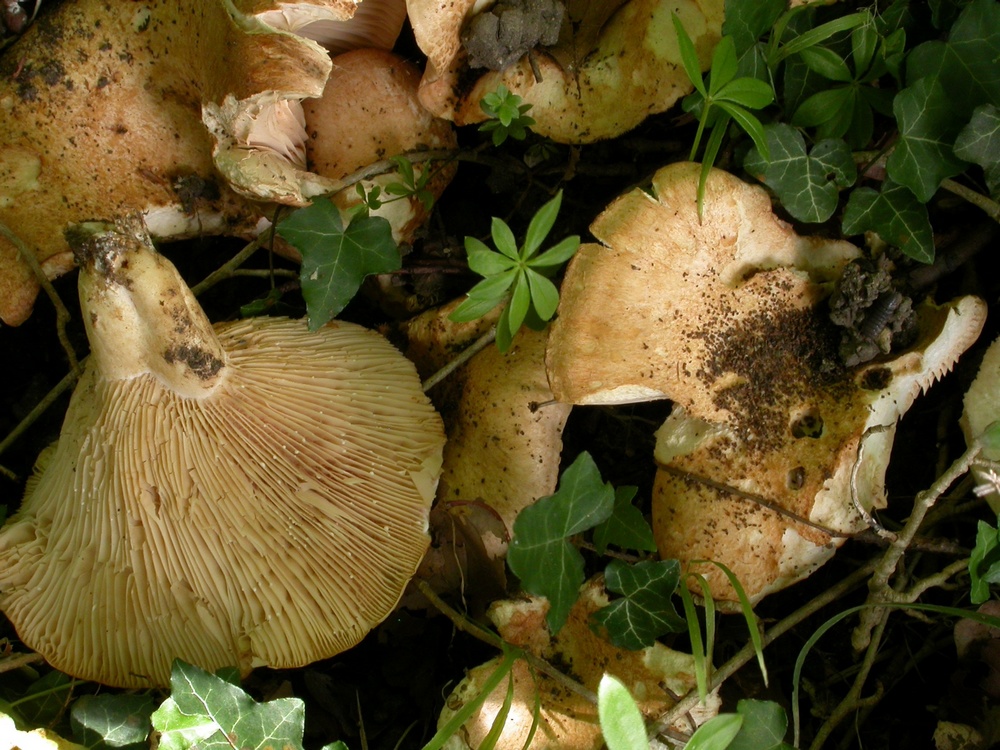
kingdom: Fungi
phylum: Basidiomycota
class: Agaricomycetes
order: Russulales
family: Russulaceae
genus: Lactarius
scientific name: Lactarius evosmus
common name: bæltet mælkehat
